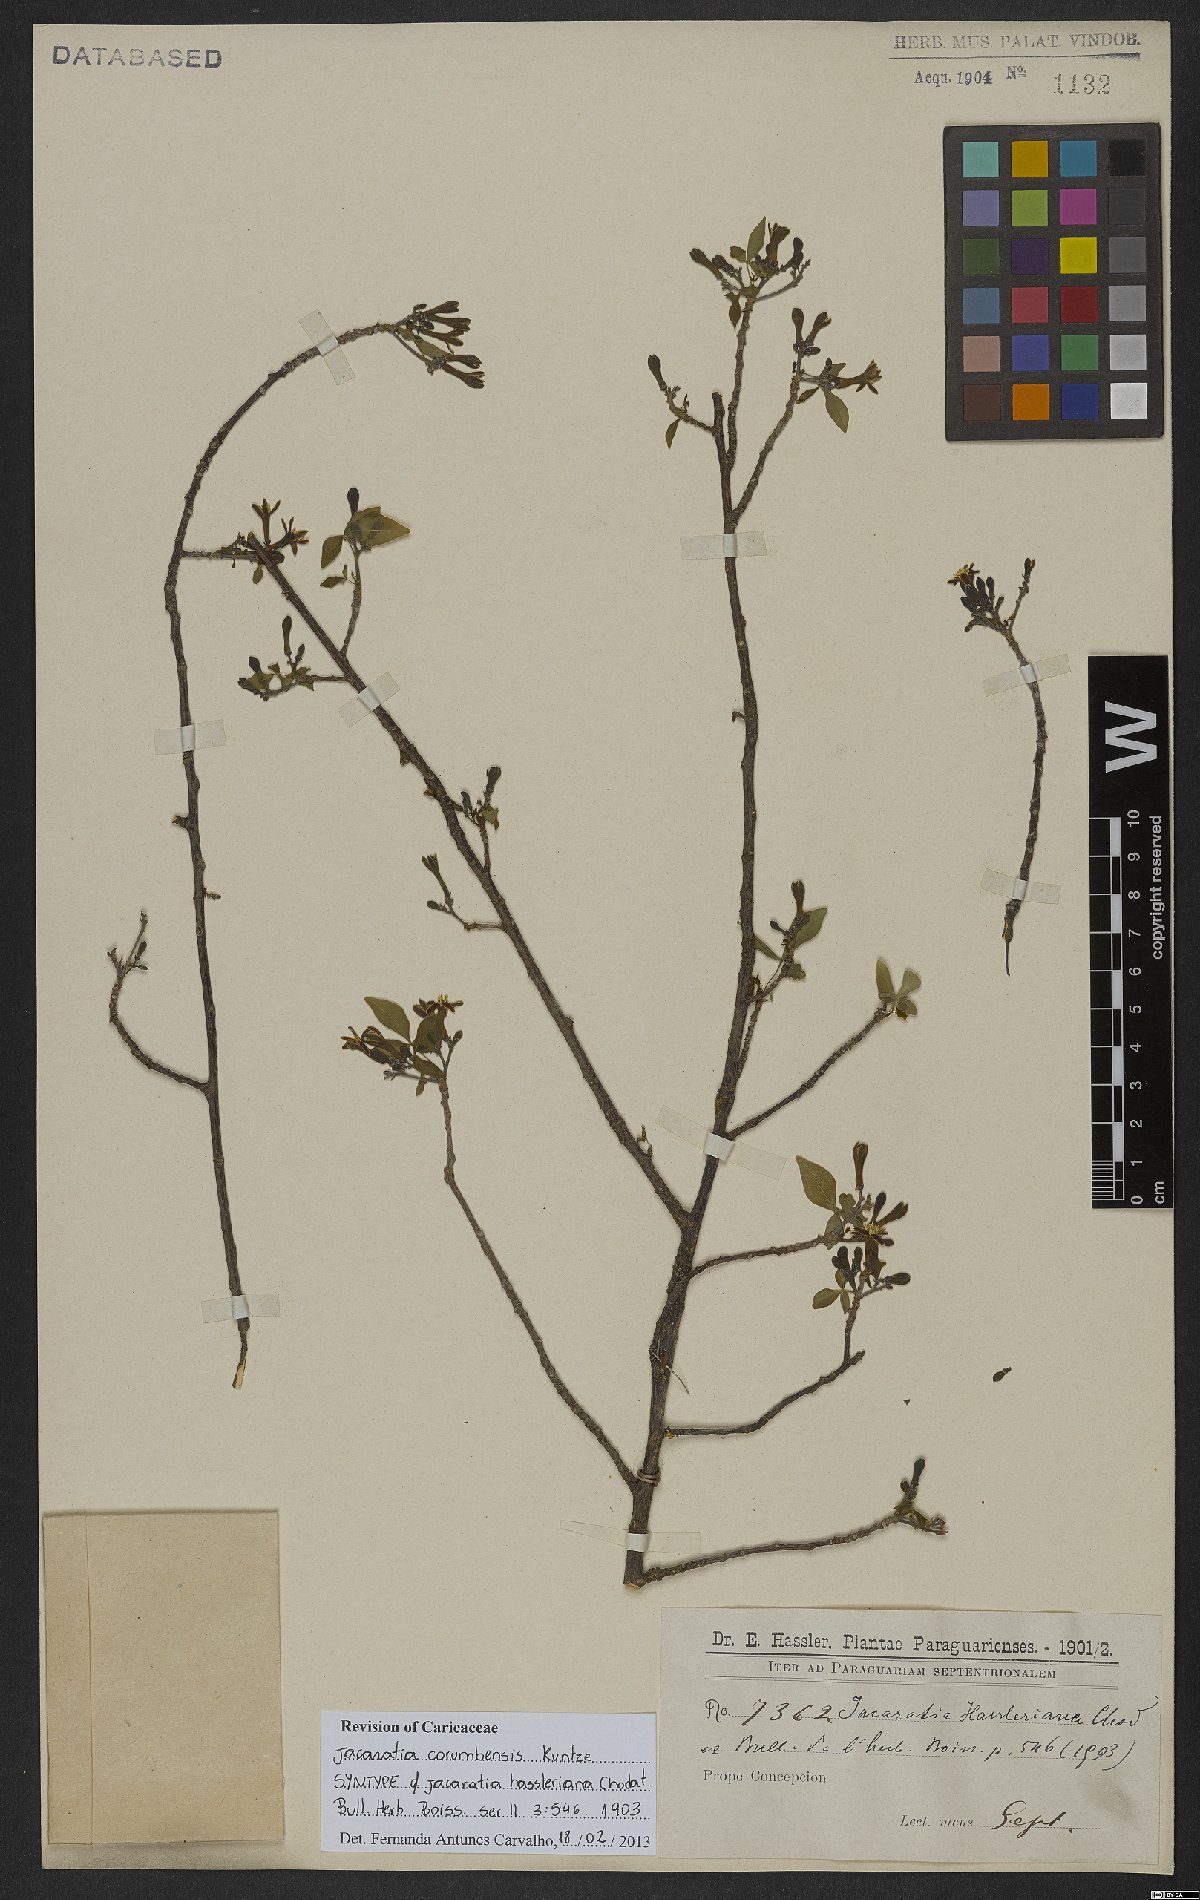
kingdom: Plantae
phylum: Tracheophyta
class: Magnoliopsida
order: Brassicales
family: Caricaceae
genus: Jacaratia
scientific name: Jacaratia corumbensis
